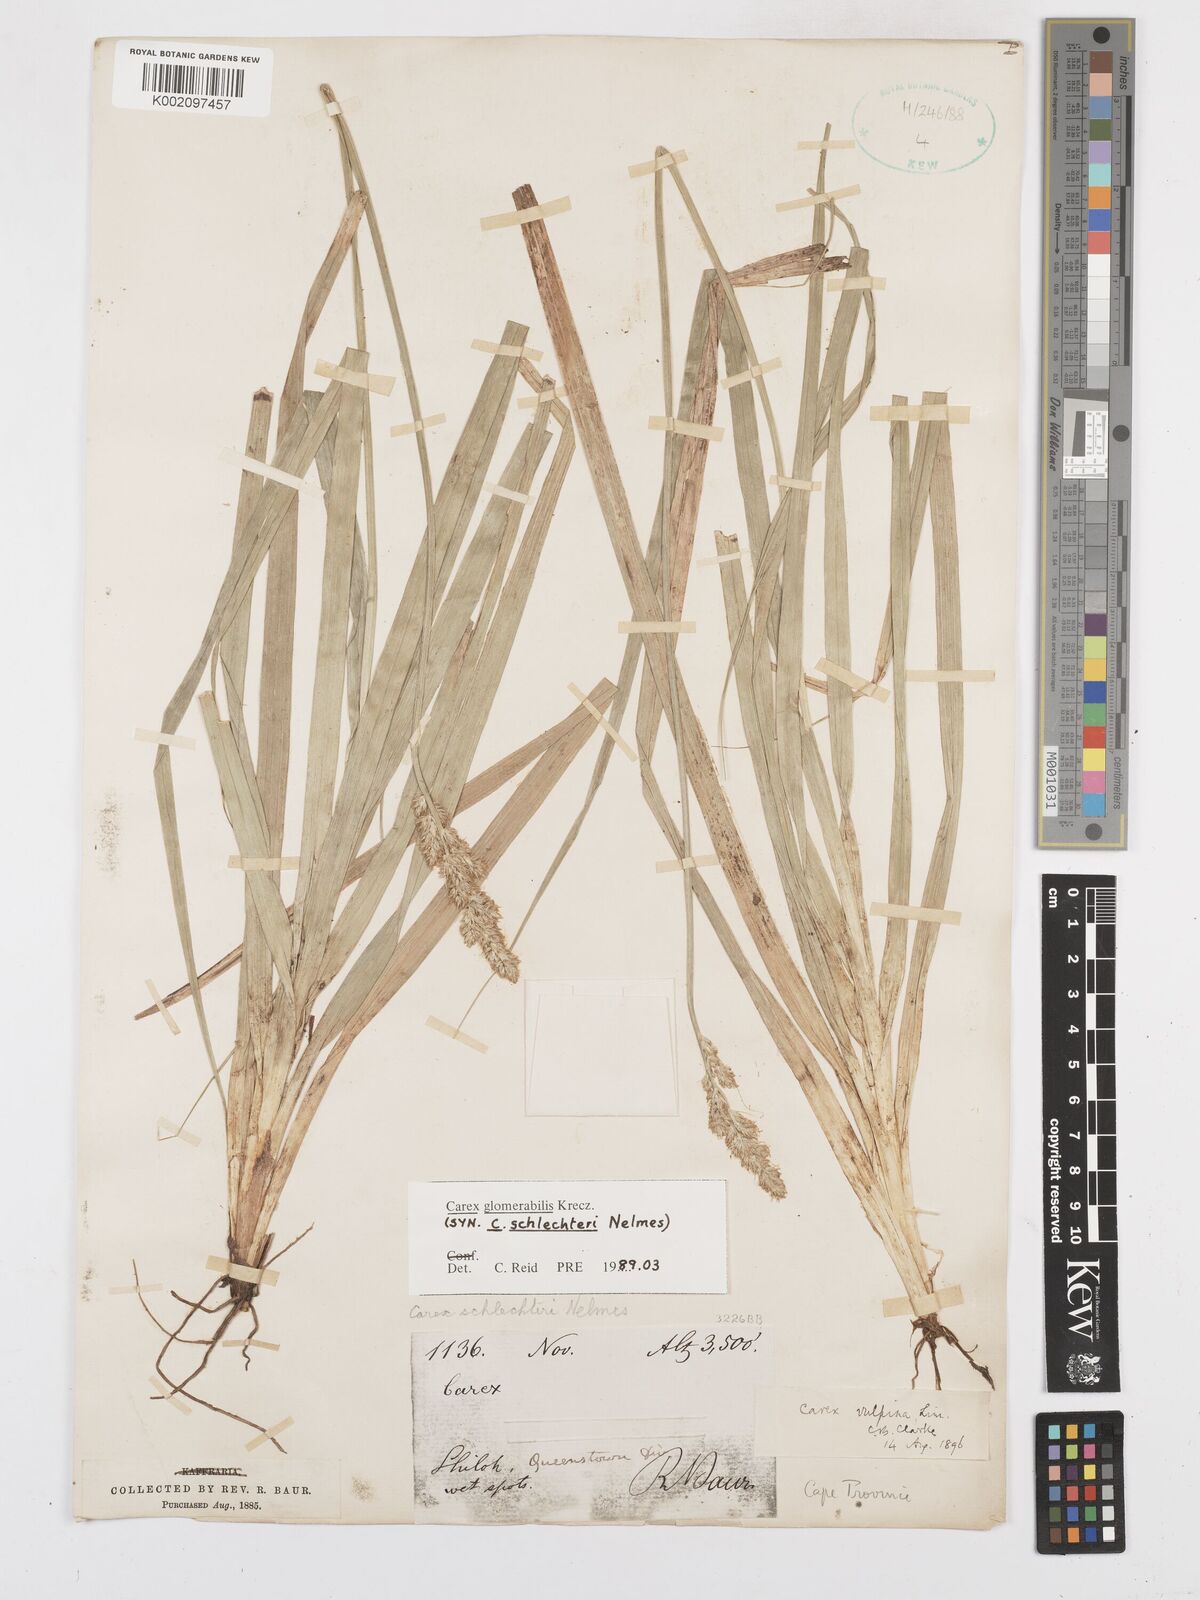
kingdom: Plantae
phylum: Tracheophyta
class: Liliopsida
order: Poales
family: Cyperaceae
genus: Carex
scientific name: Carex glomerata
